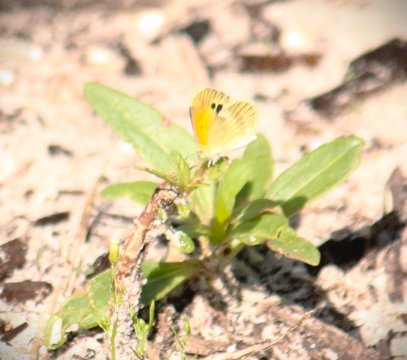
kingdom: Animalia
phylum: Arthropoda
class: Insecta
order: Lepidoptera
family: Pieridae
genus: Nathalis
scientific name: Nathalis iole
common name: Dainty Sulphur
